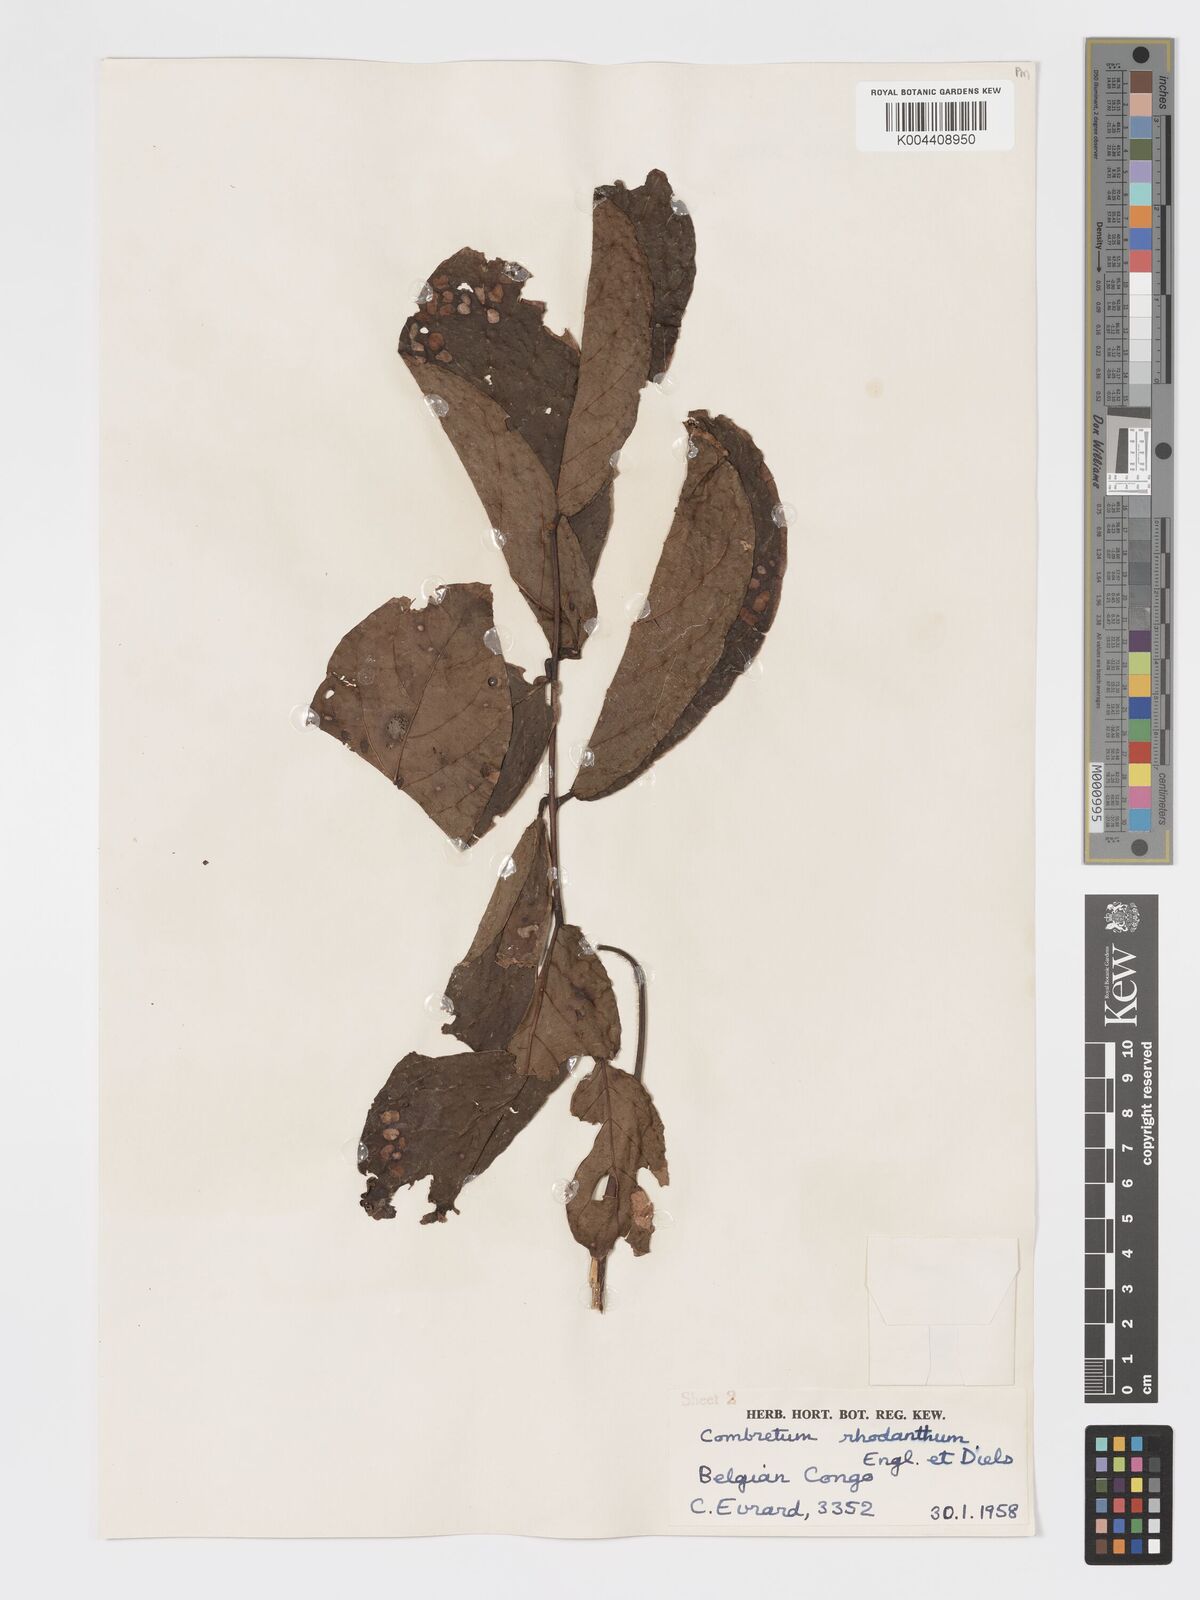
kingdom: Plantae
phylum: Tracheophyta
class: Magnoliopsida
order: Myrtales
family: Combretaceae
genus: Combretum
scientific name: Combretum comosum
